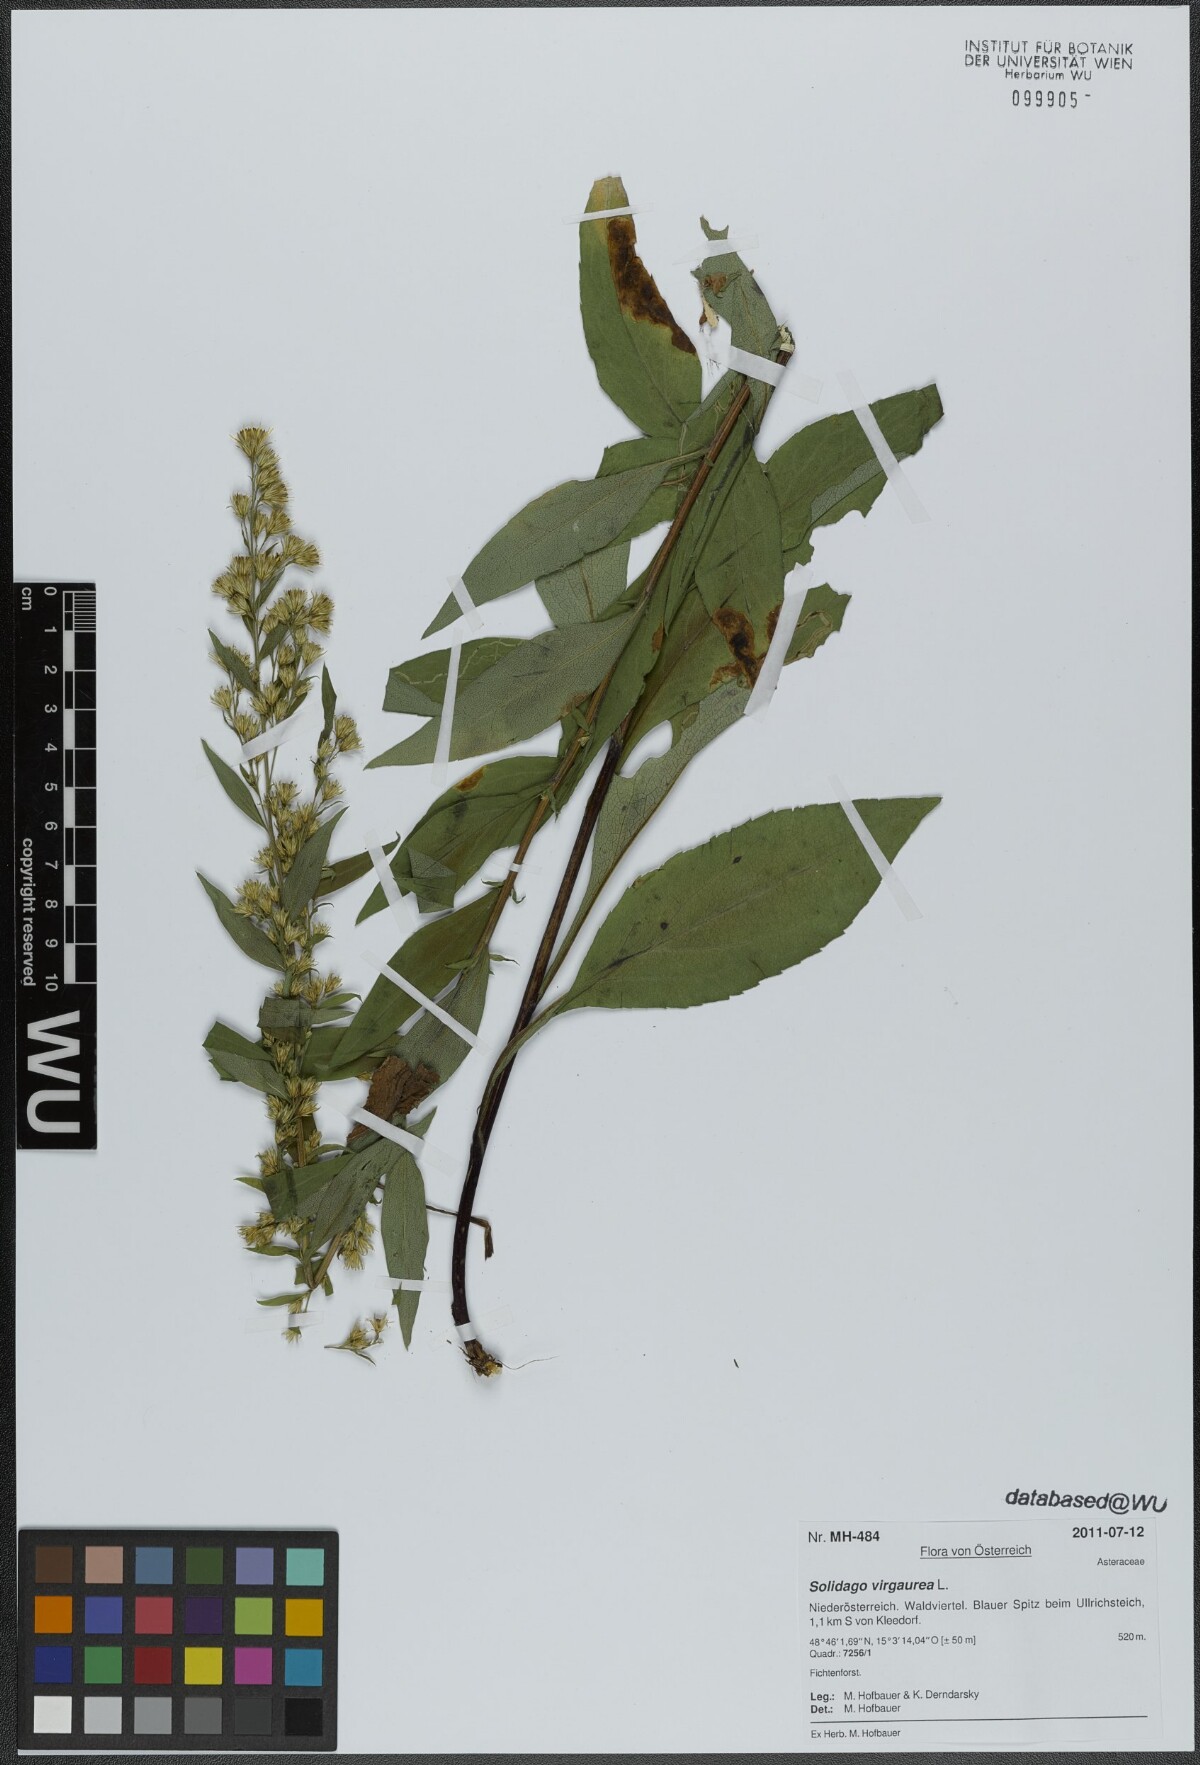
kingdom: Plantae
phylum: Tracheophyta
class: Magnoliopsida
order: Asterales
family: Asteraceae
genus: Solidago
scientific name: Solidago virgaurea
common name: Goldenrod
